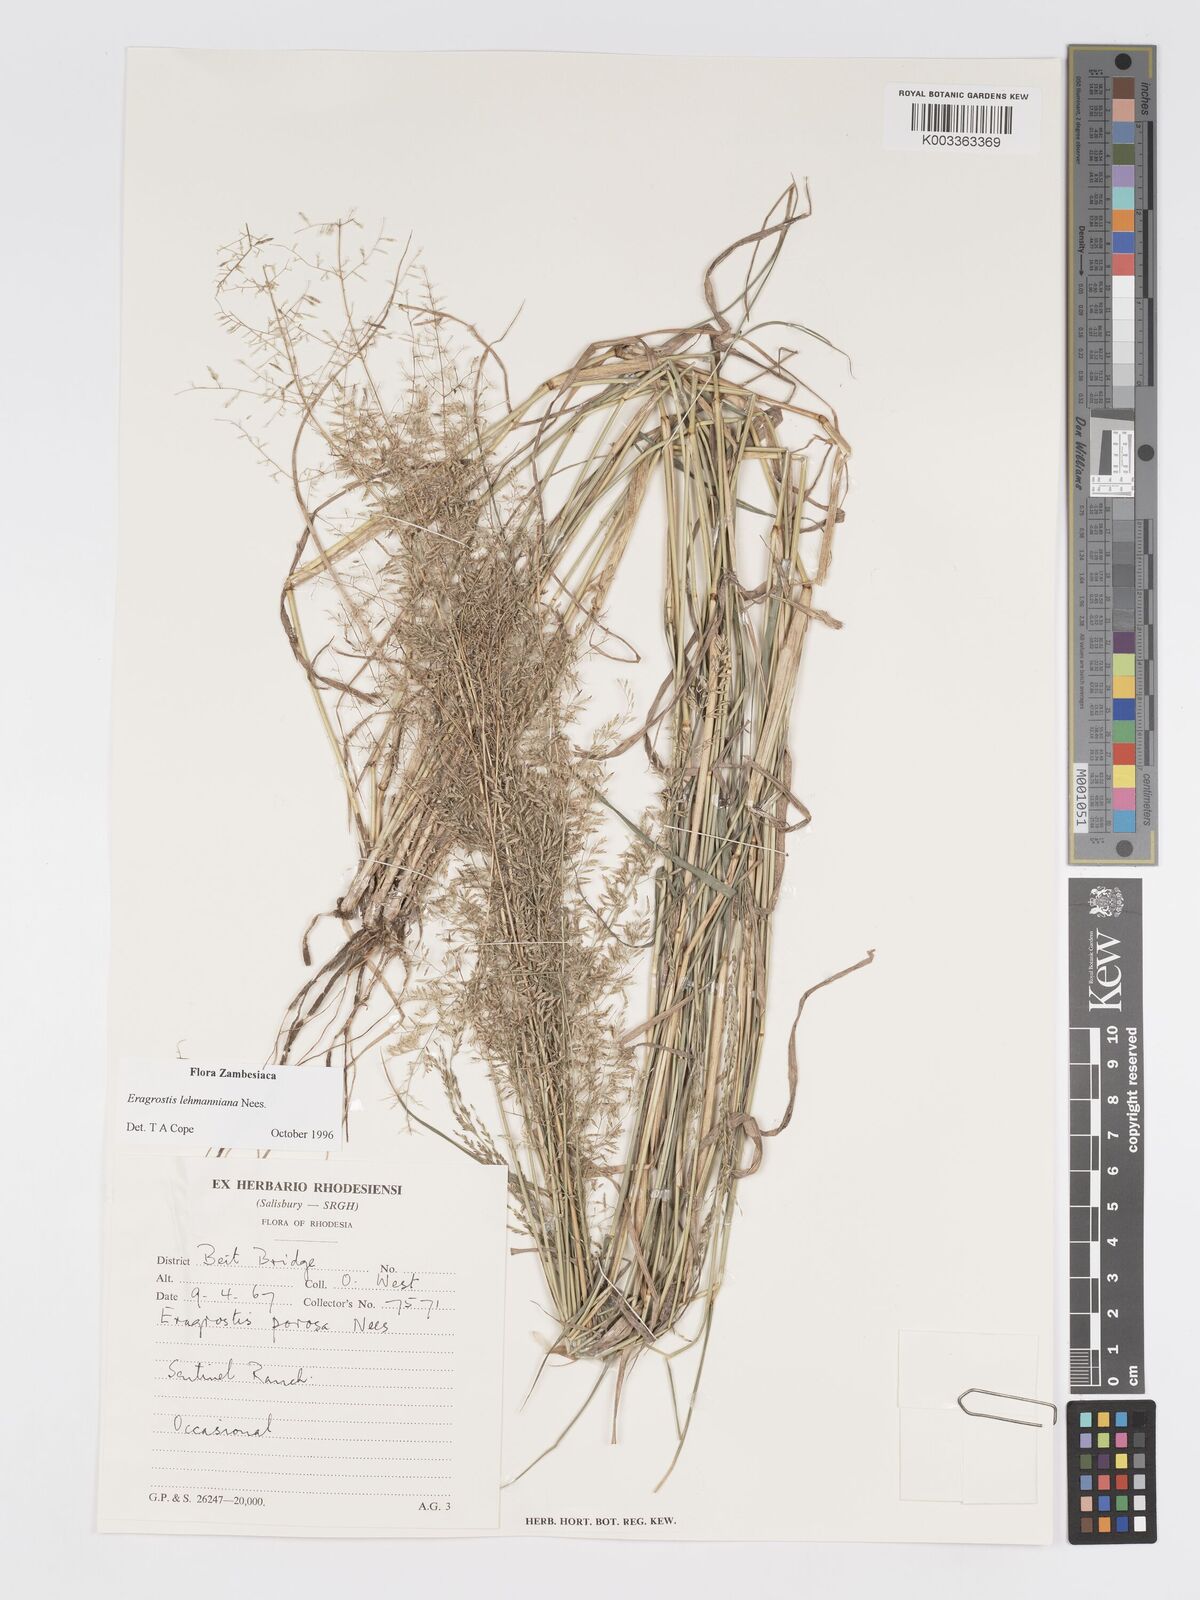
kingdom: Plantae
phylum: Tracheophyta
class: Liliopsida
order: Poales
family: Poaceae
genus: Eragrostis
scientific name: Eragrostis lehmanniana
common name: Lehmann lovegrass
